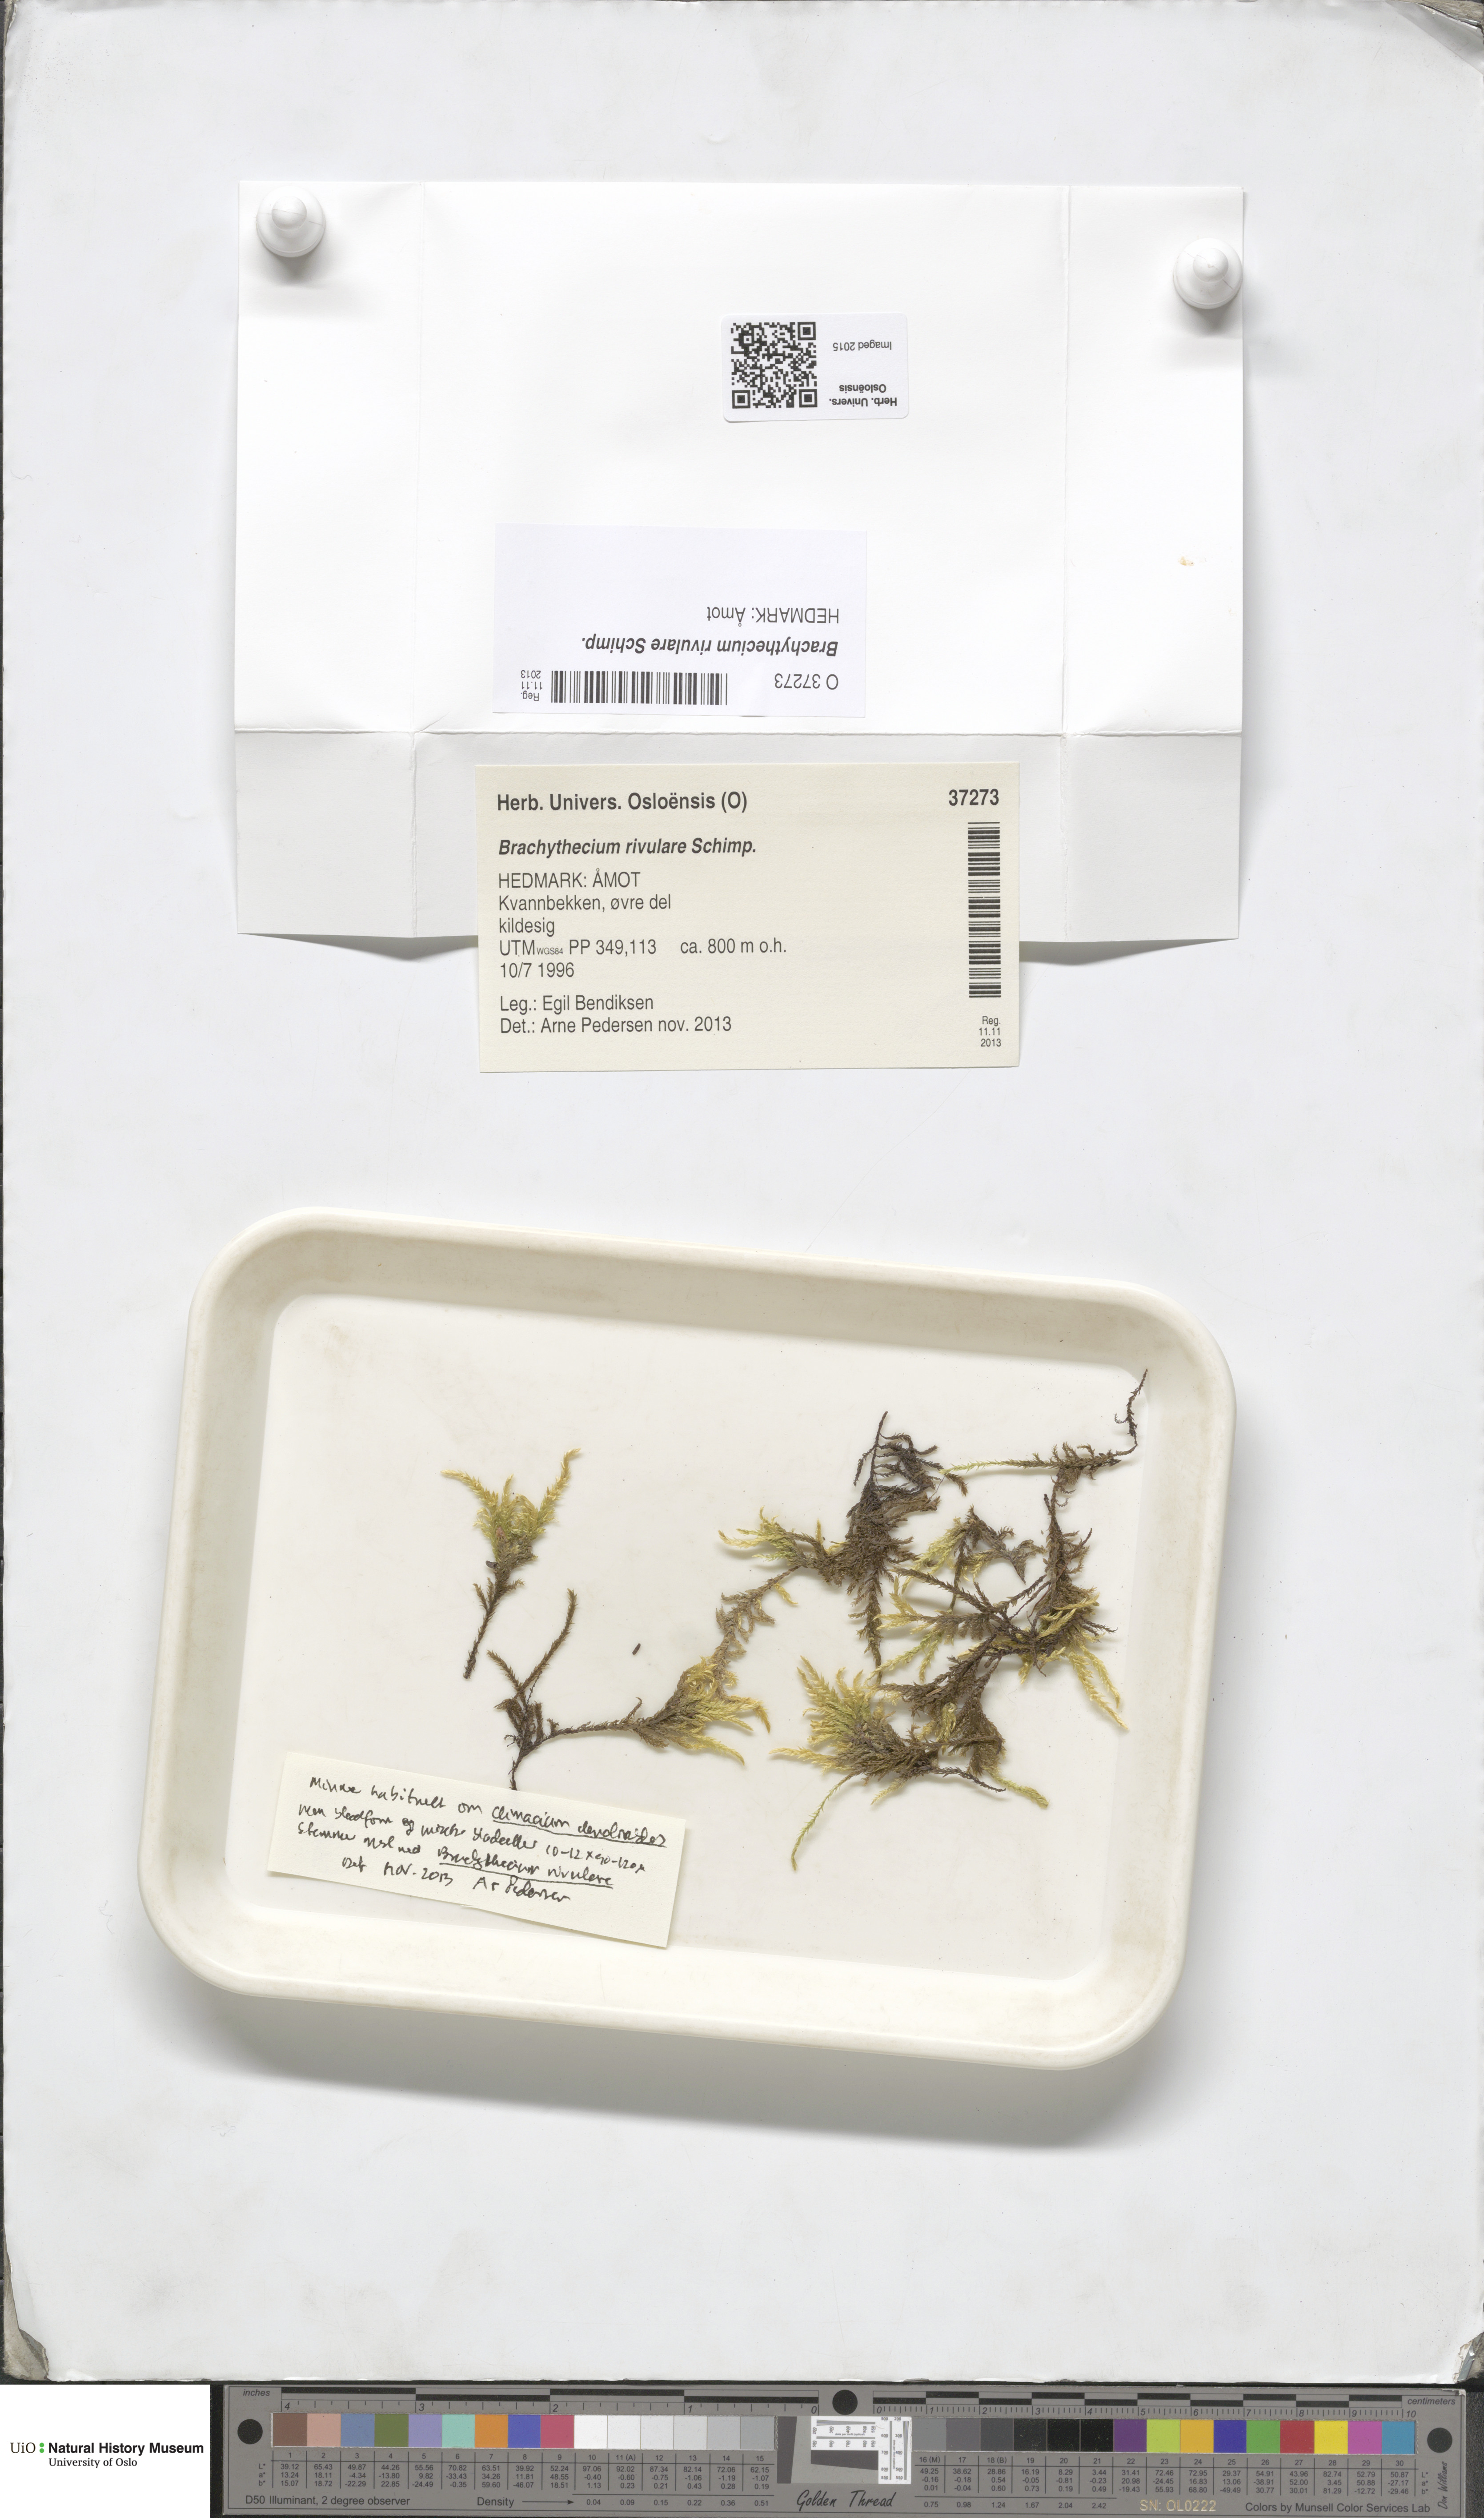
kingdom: Plantae
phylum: Bryophyta
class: Bryopsida
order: Hypnales
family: Brachytheciaceae
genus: Brachythecium
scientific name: Brachythecium rivulare
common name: River ragged moss
